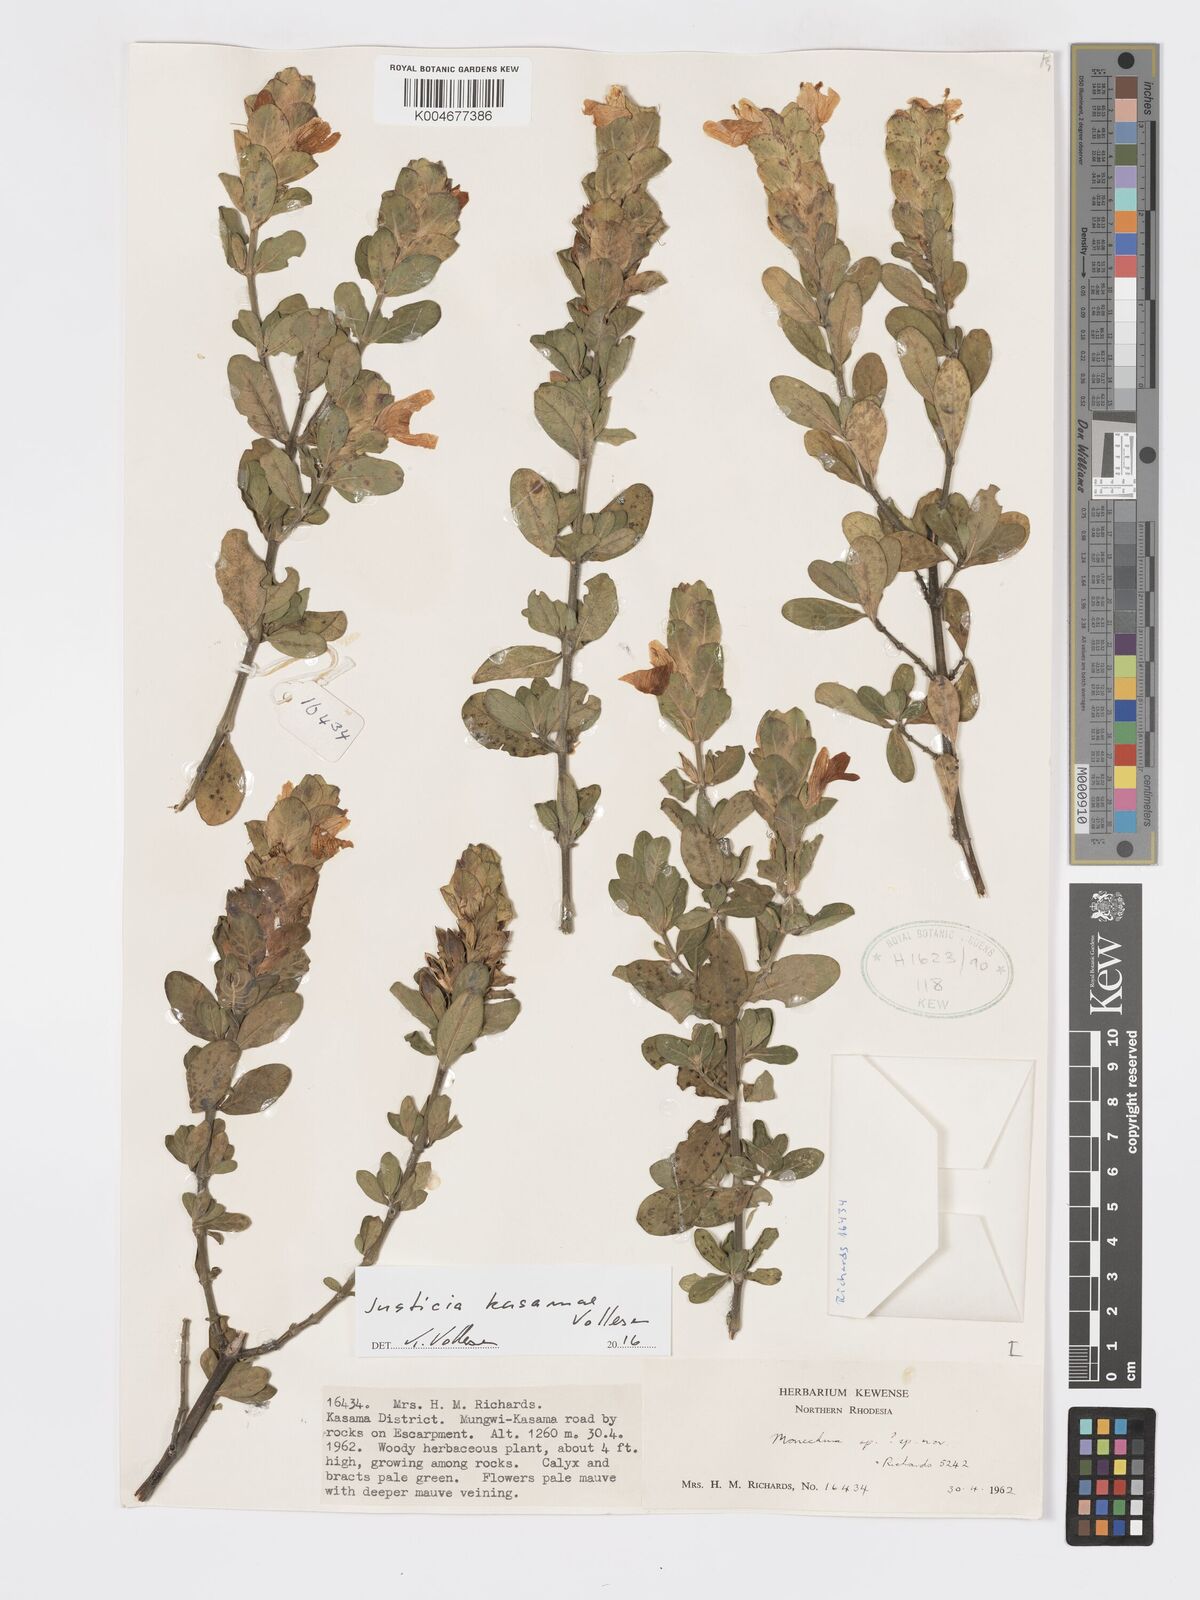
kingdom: Plantae
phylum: Tracheophyta
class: Magnoliopsida
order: Lamiales
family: Acanthaceae
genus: Pogonospermum
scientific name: Pogonospermum
